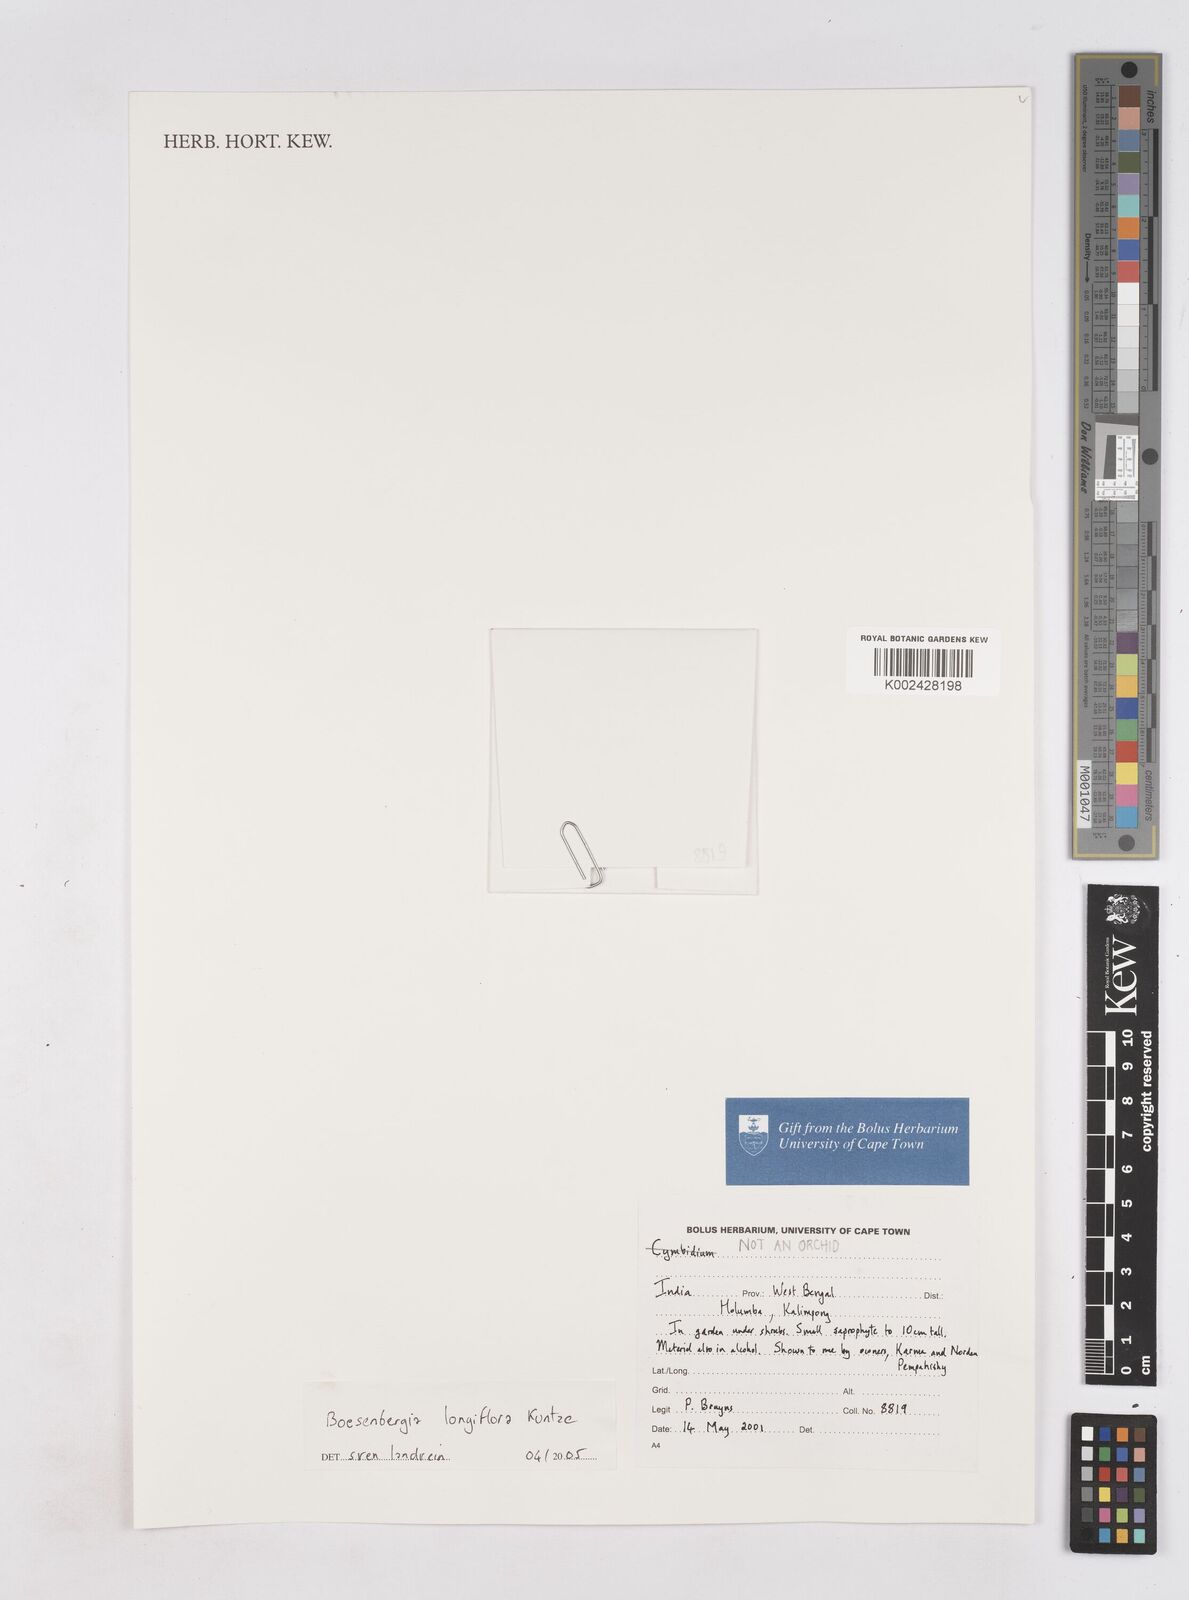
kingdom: Plantae
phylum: Tracheophyta
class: Liliopsida
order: Zingiberales
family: Zingiberaceae
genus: Boesenbergia
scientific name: Boesenbergia longiflora
